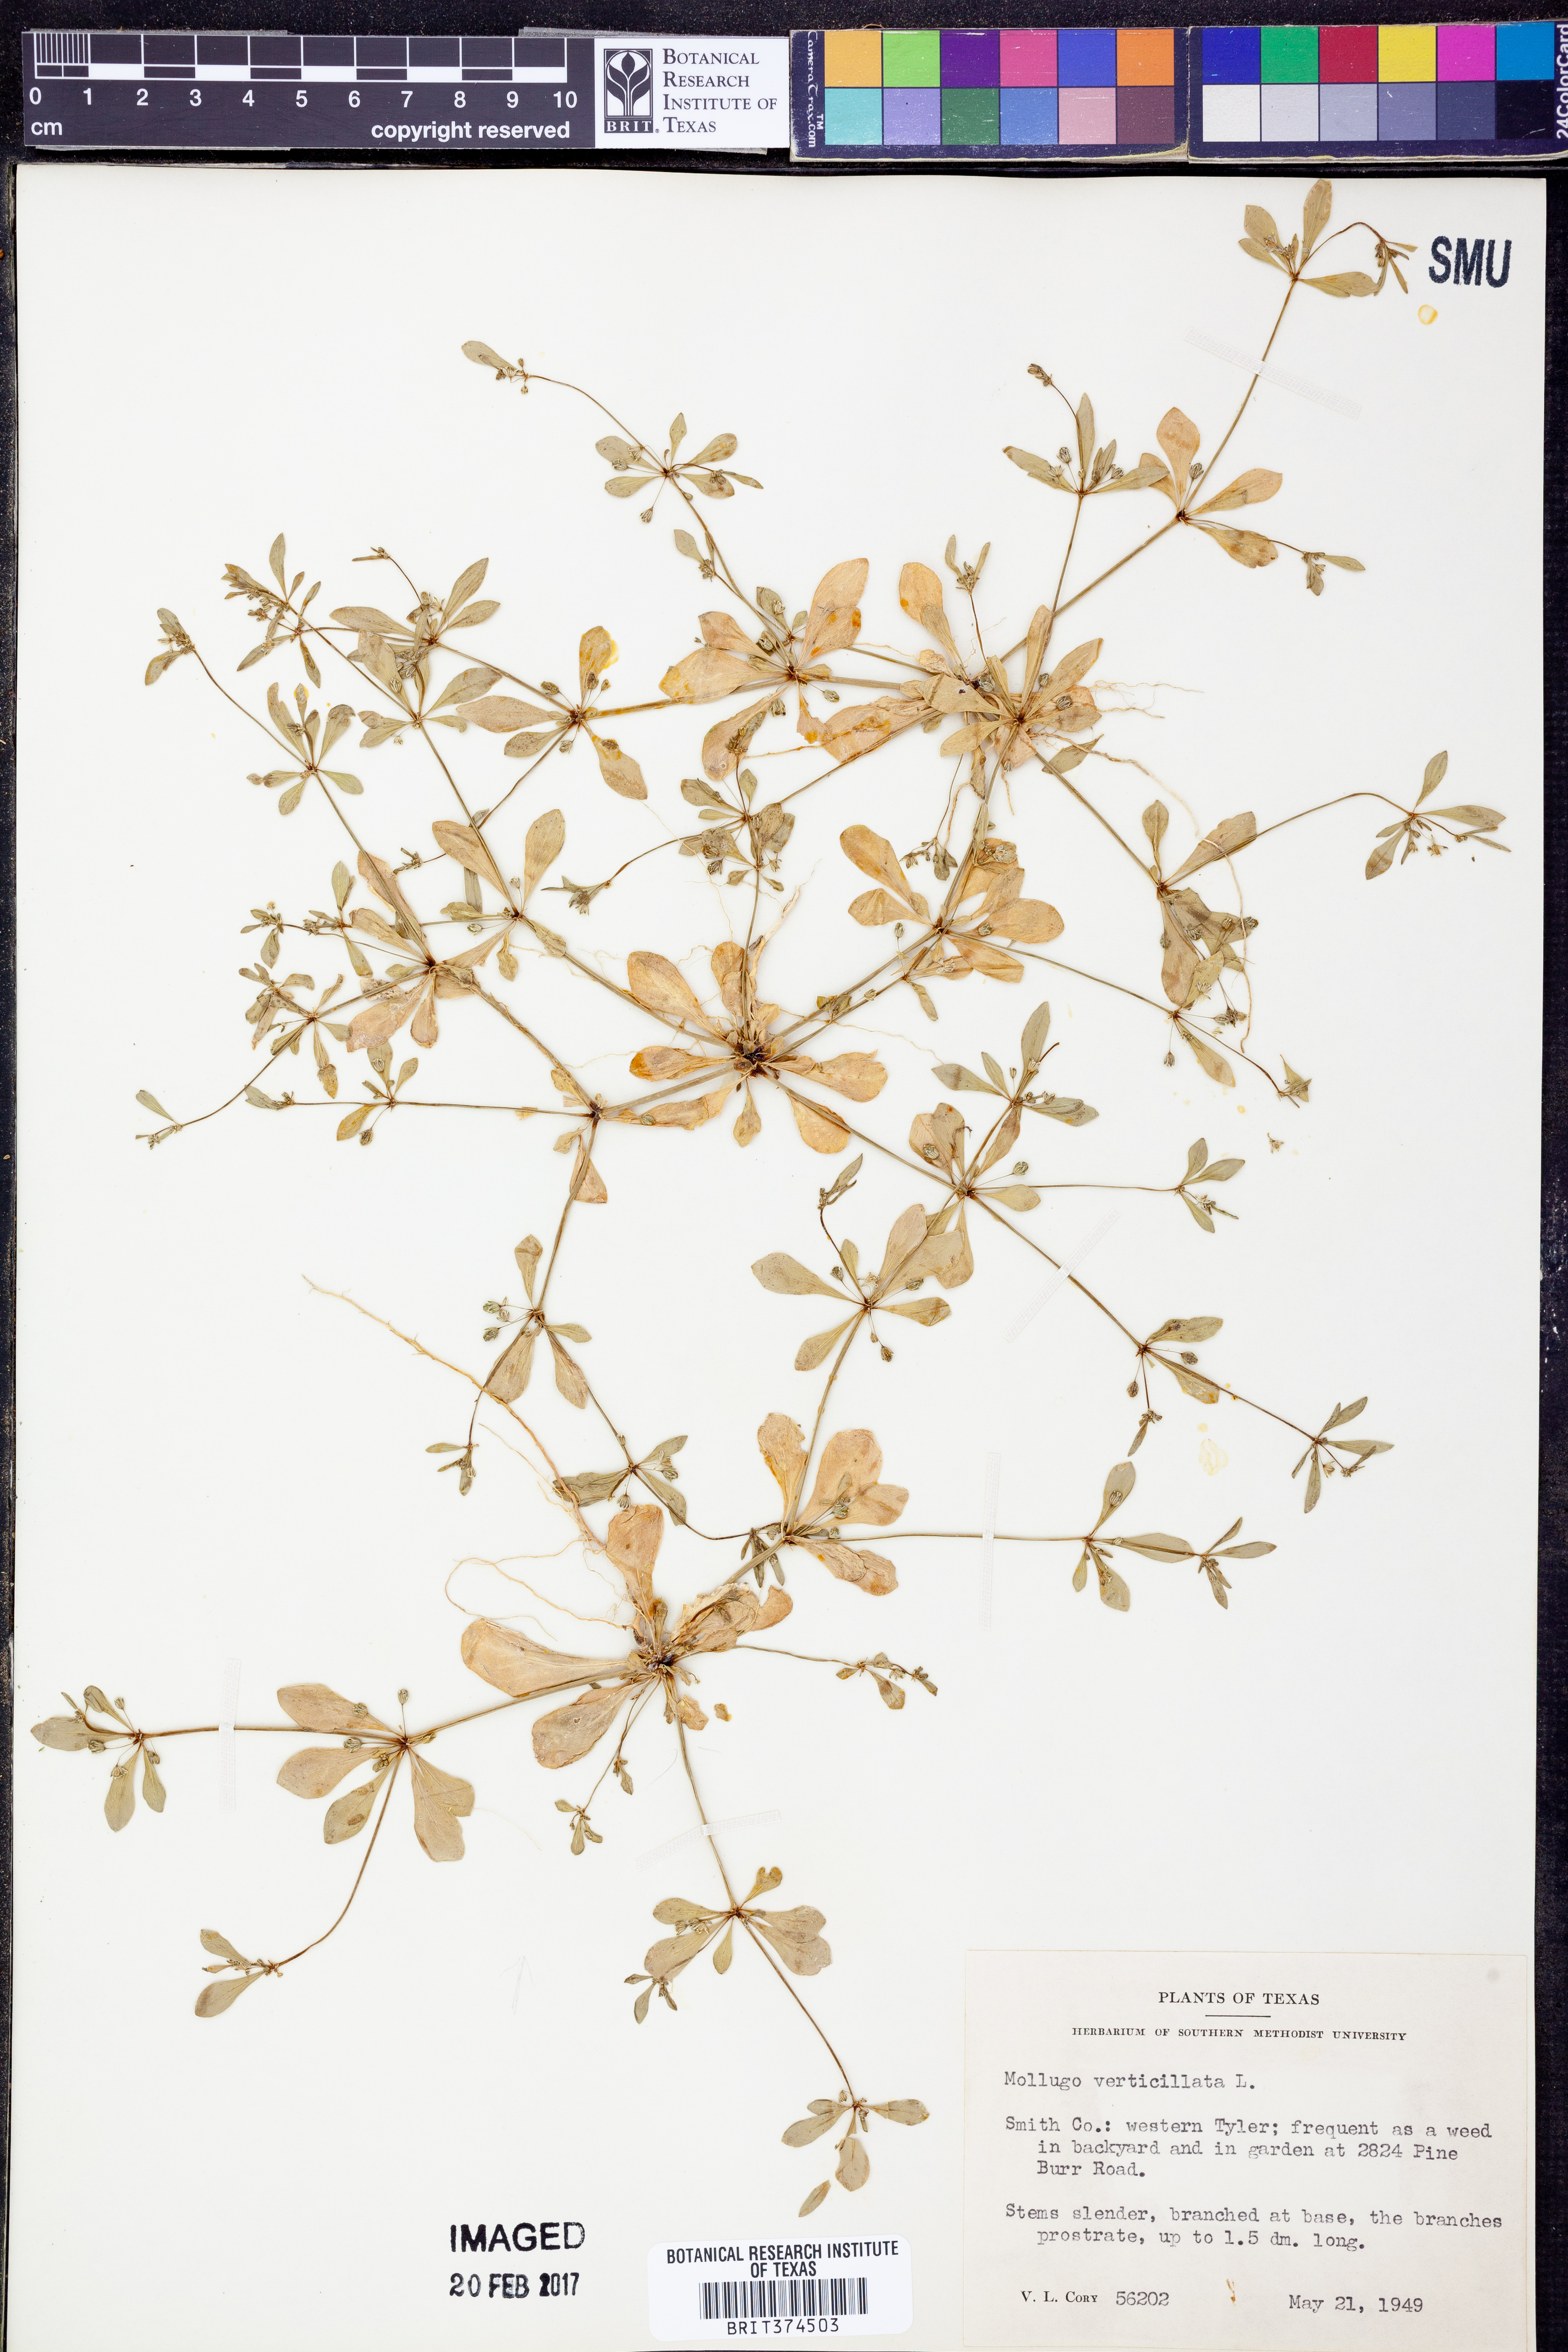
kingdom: Plantae
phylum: Tracheophyta
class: Magnoliopsida
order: Caryophyllales
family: Molluginaceae
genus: Mollugo
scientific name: Mollugo verticillata
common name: Green carpetweed
